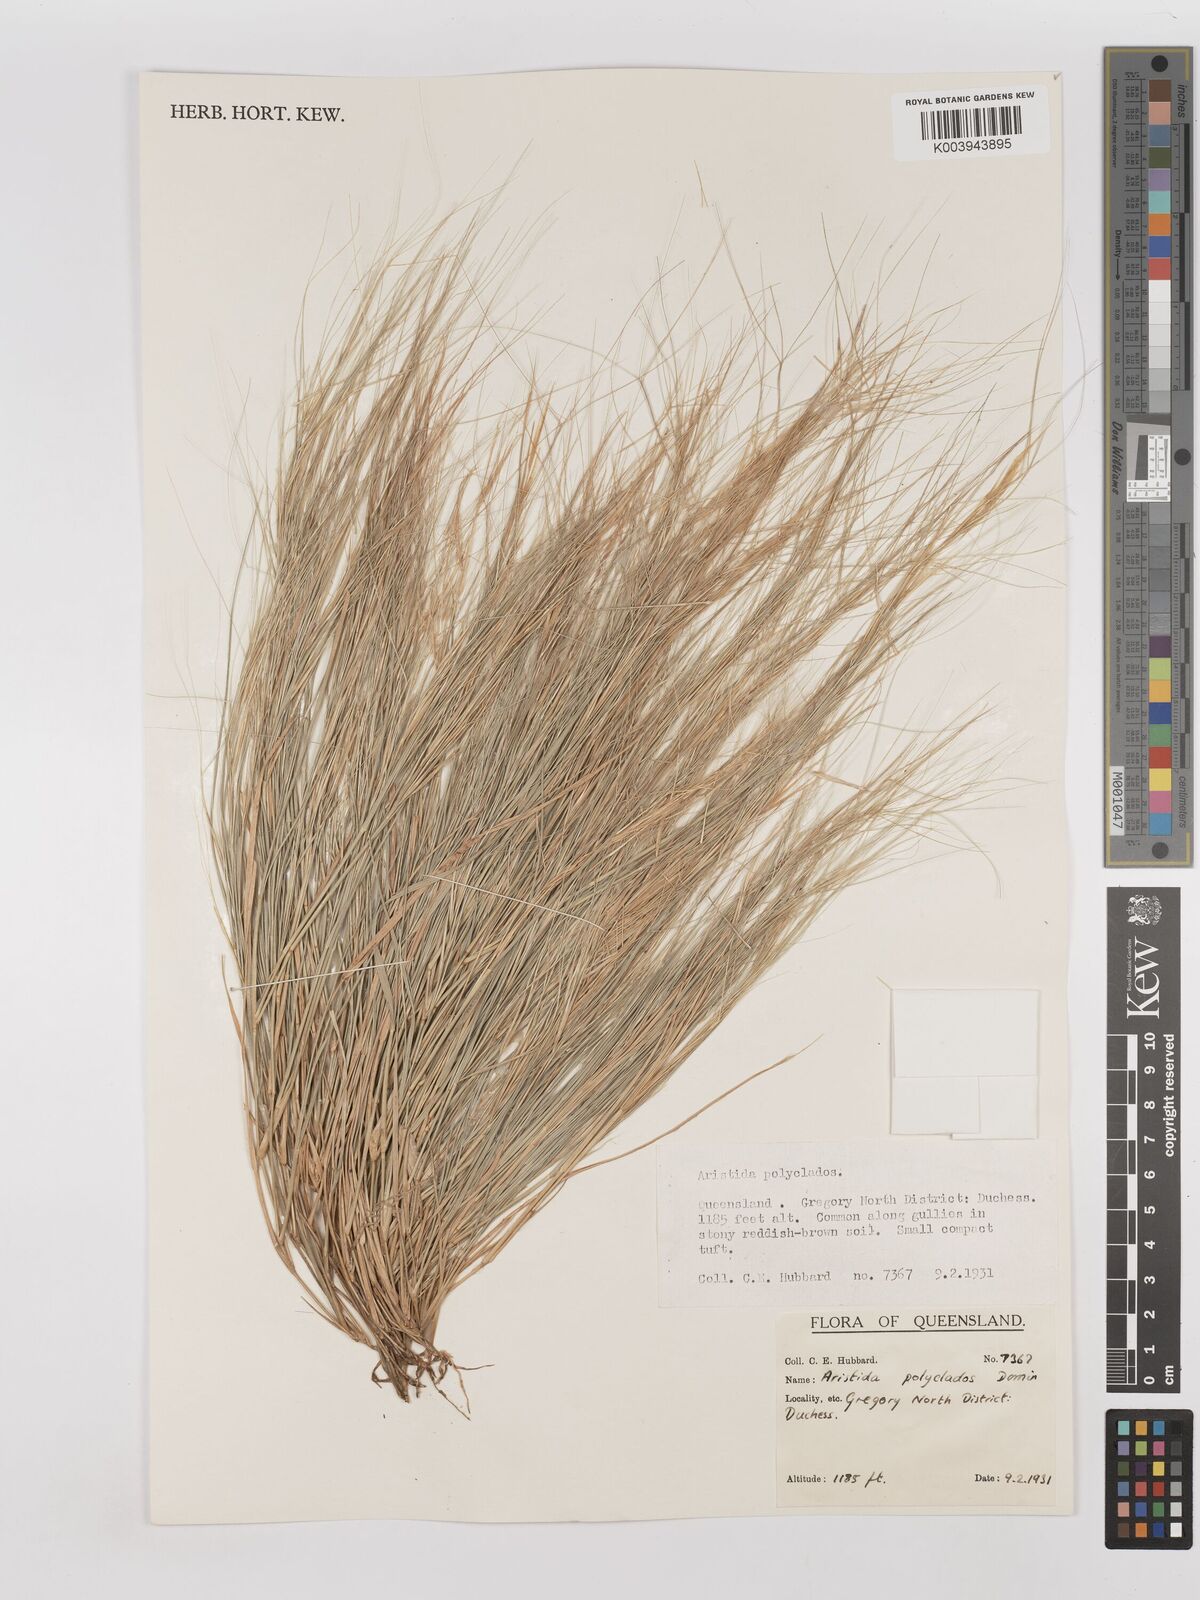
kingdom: Plantae
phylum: Tracheophyta
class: Liliopsida
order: Poales
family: Poaceae
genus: Aristida
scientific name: Aristida polyclados
